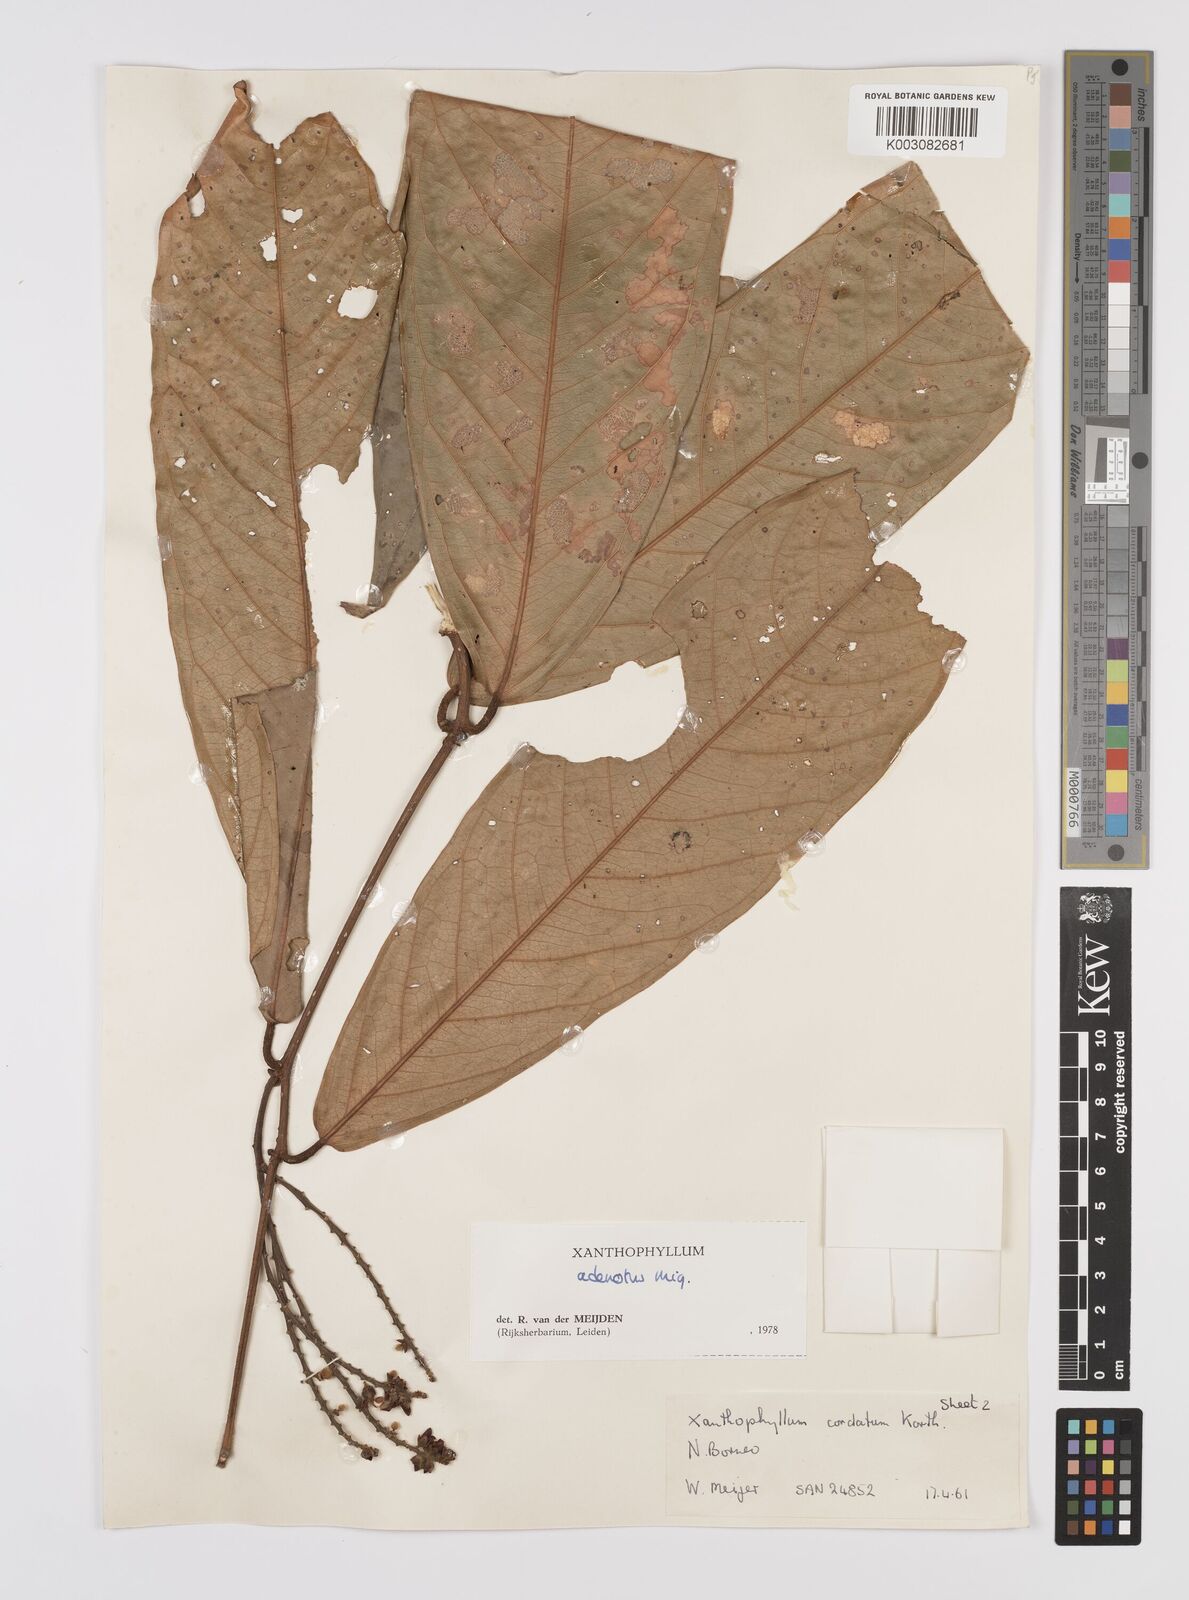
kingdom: Plantae
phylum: Tracheophyta
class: Magnoliopsida
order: Fabales
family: Polygalaceae
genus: Xanthophyllum
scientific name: Xanthophyllum adenotus
